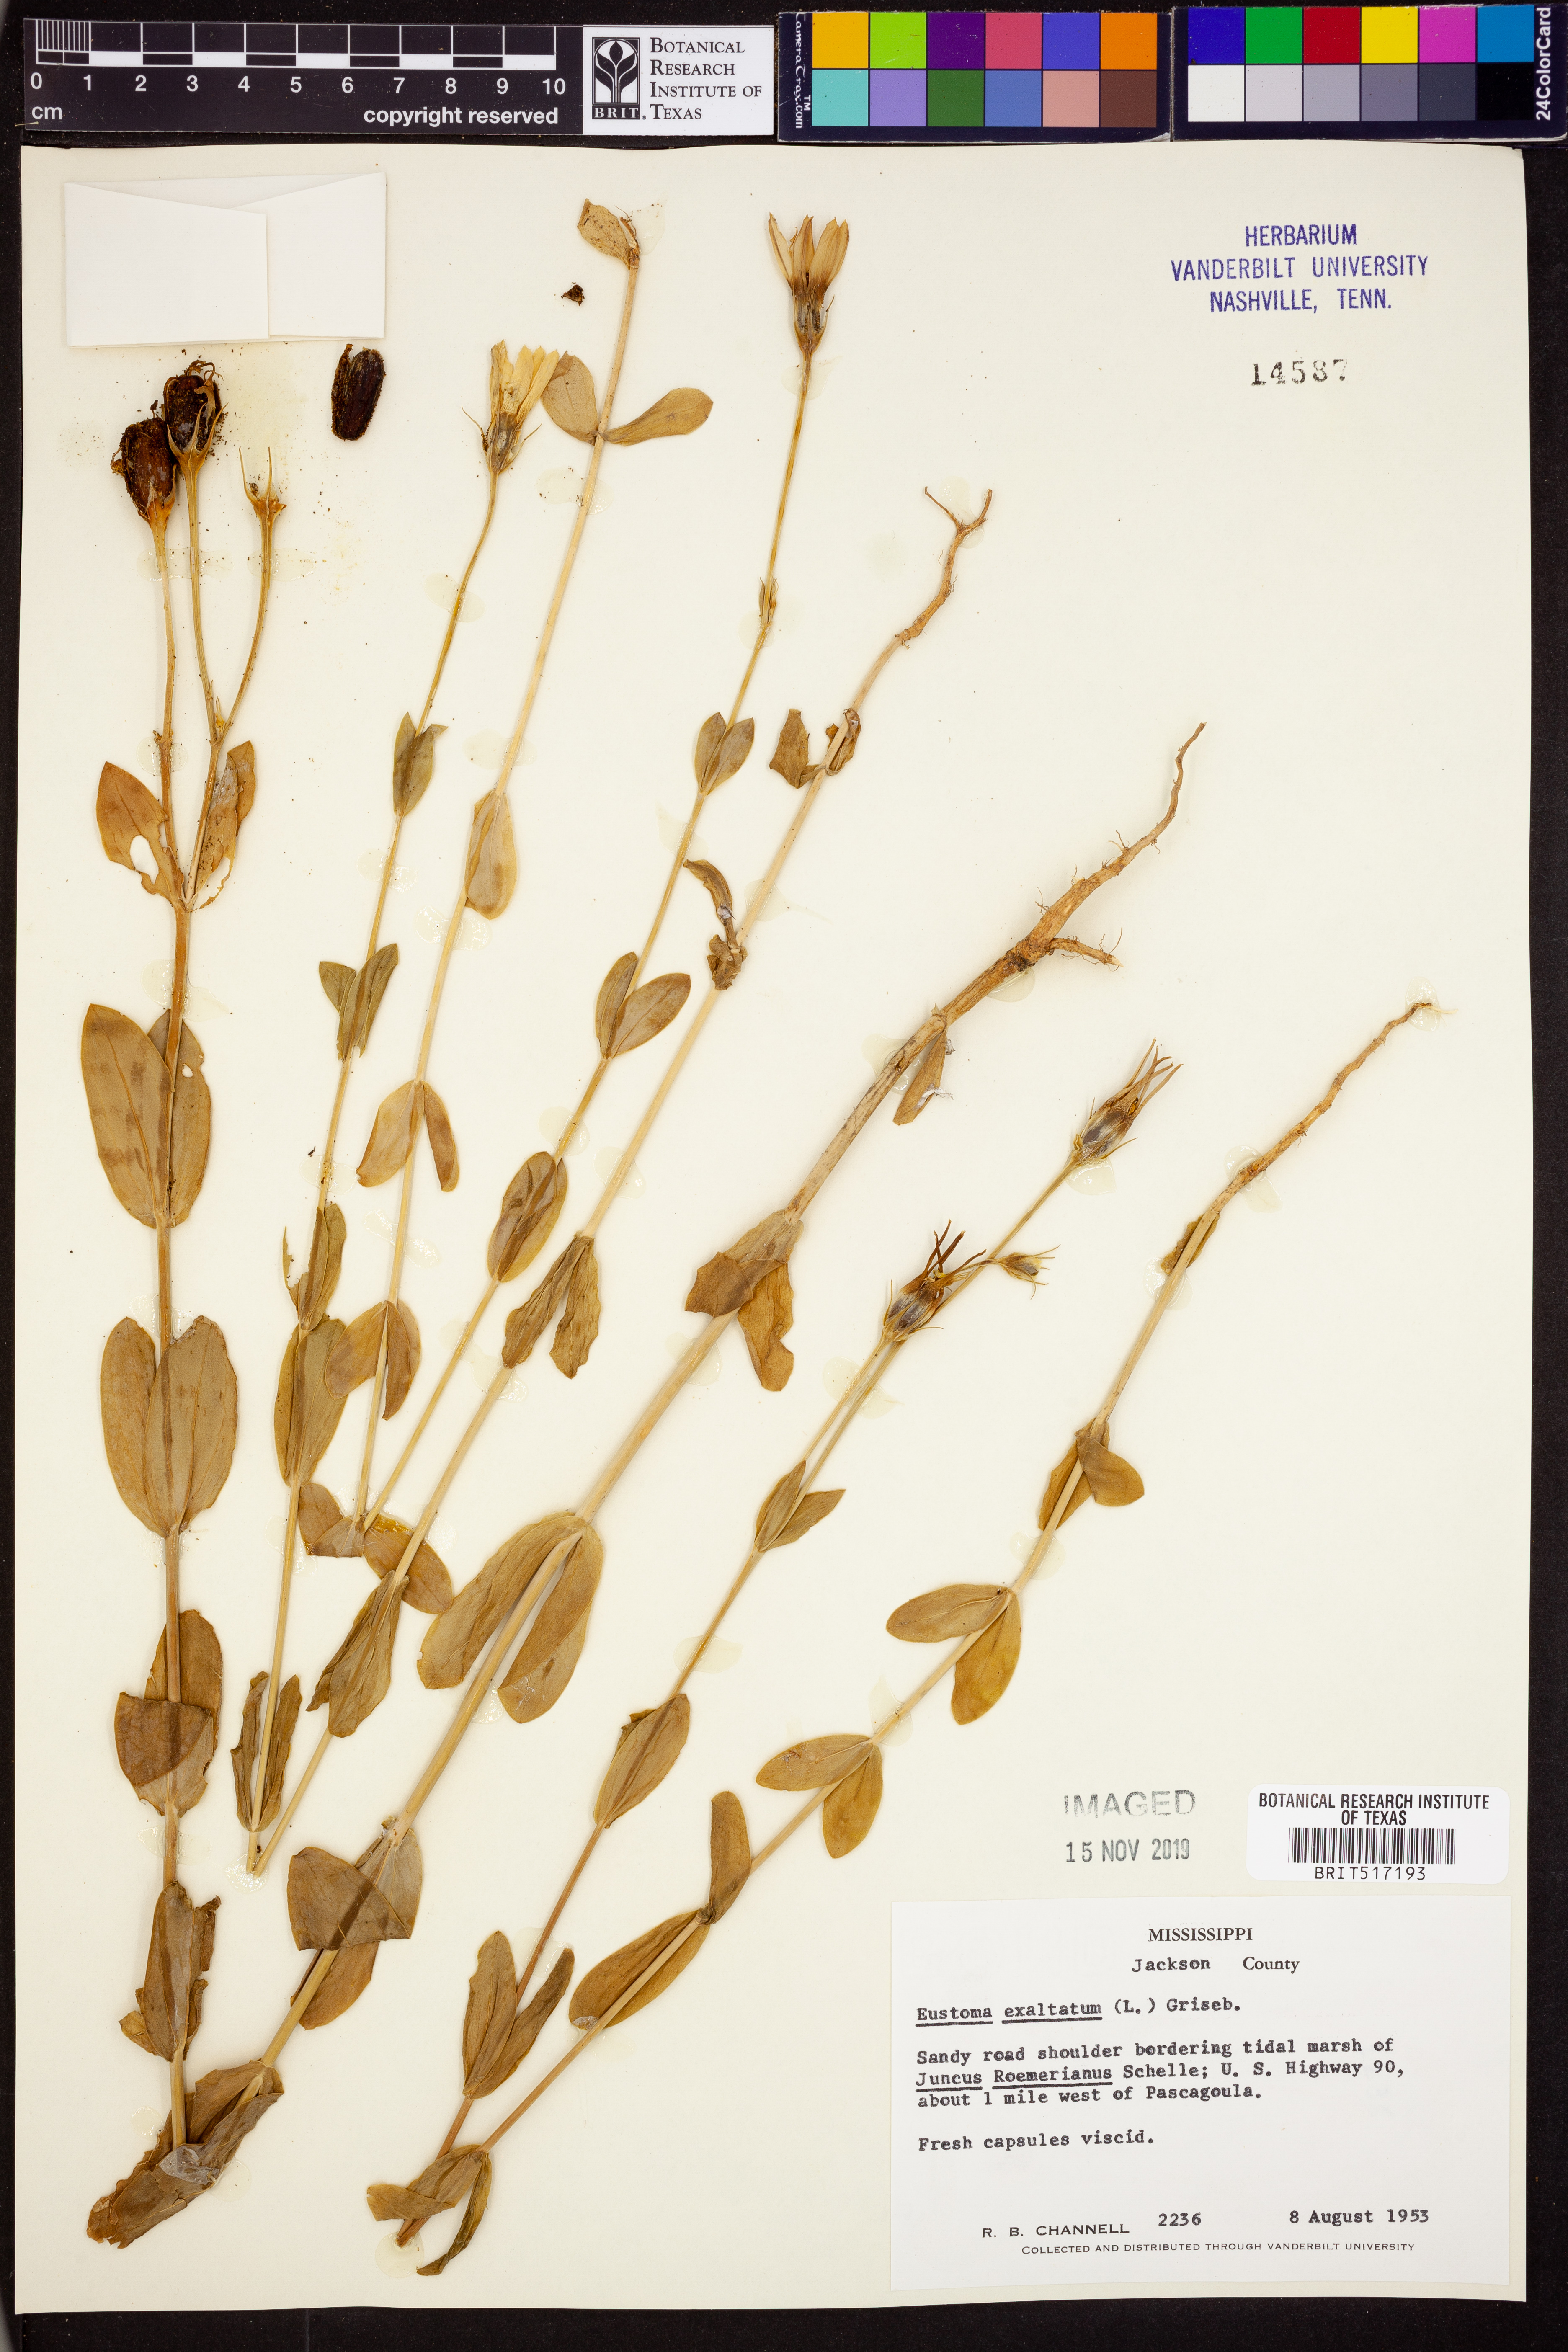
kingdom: Plantae
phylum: Tracheophyta
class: Magnoliopsida
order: Gentianales
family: Gentianaceae
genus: Eustoma
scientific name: Eustoma exaltatum
